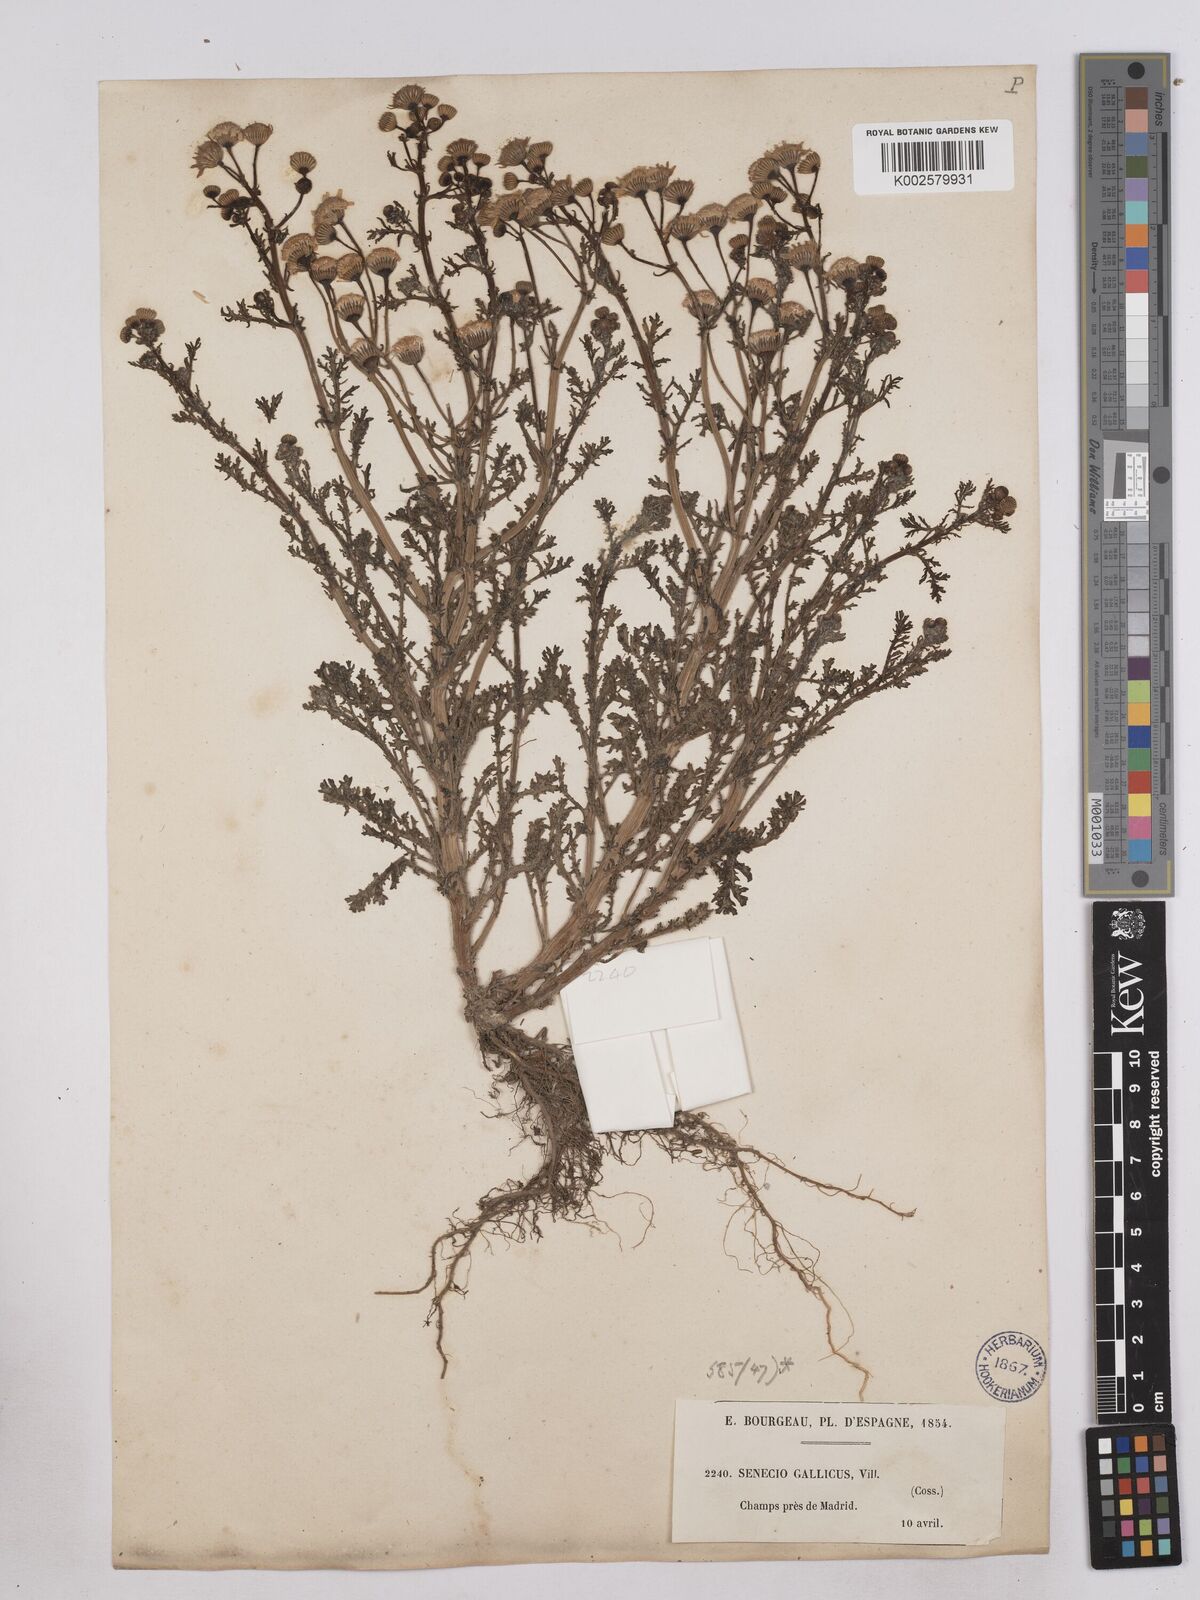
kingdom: Plantae
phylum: Tracheophyta
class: Magnoliopsida
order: Asterales
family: Asteraceae
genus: Senecio
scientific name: Senecio gallicus
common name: French groundsel
